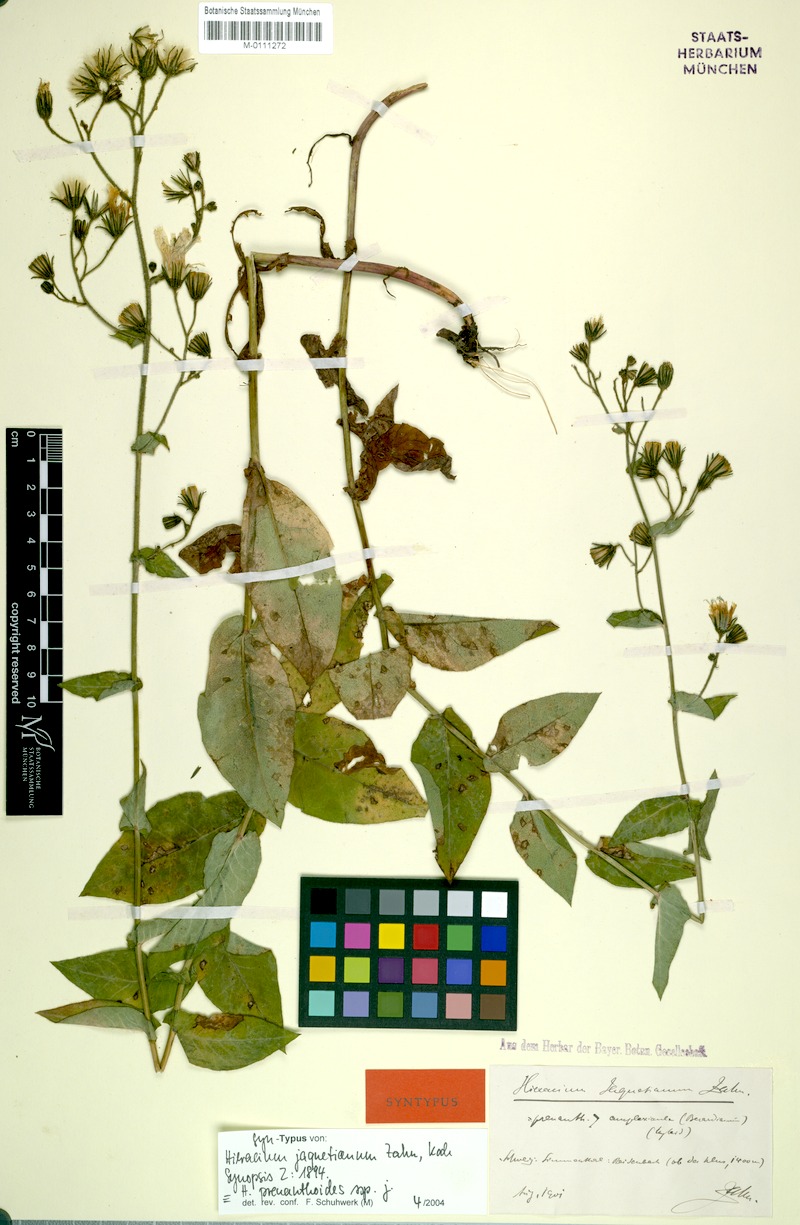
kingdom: Plantae
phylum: Tracheophyta
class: Magnoliopsida
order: Asterales
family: Asteraceae
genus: Hieracium
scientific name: Hieracium prenanthoides
